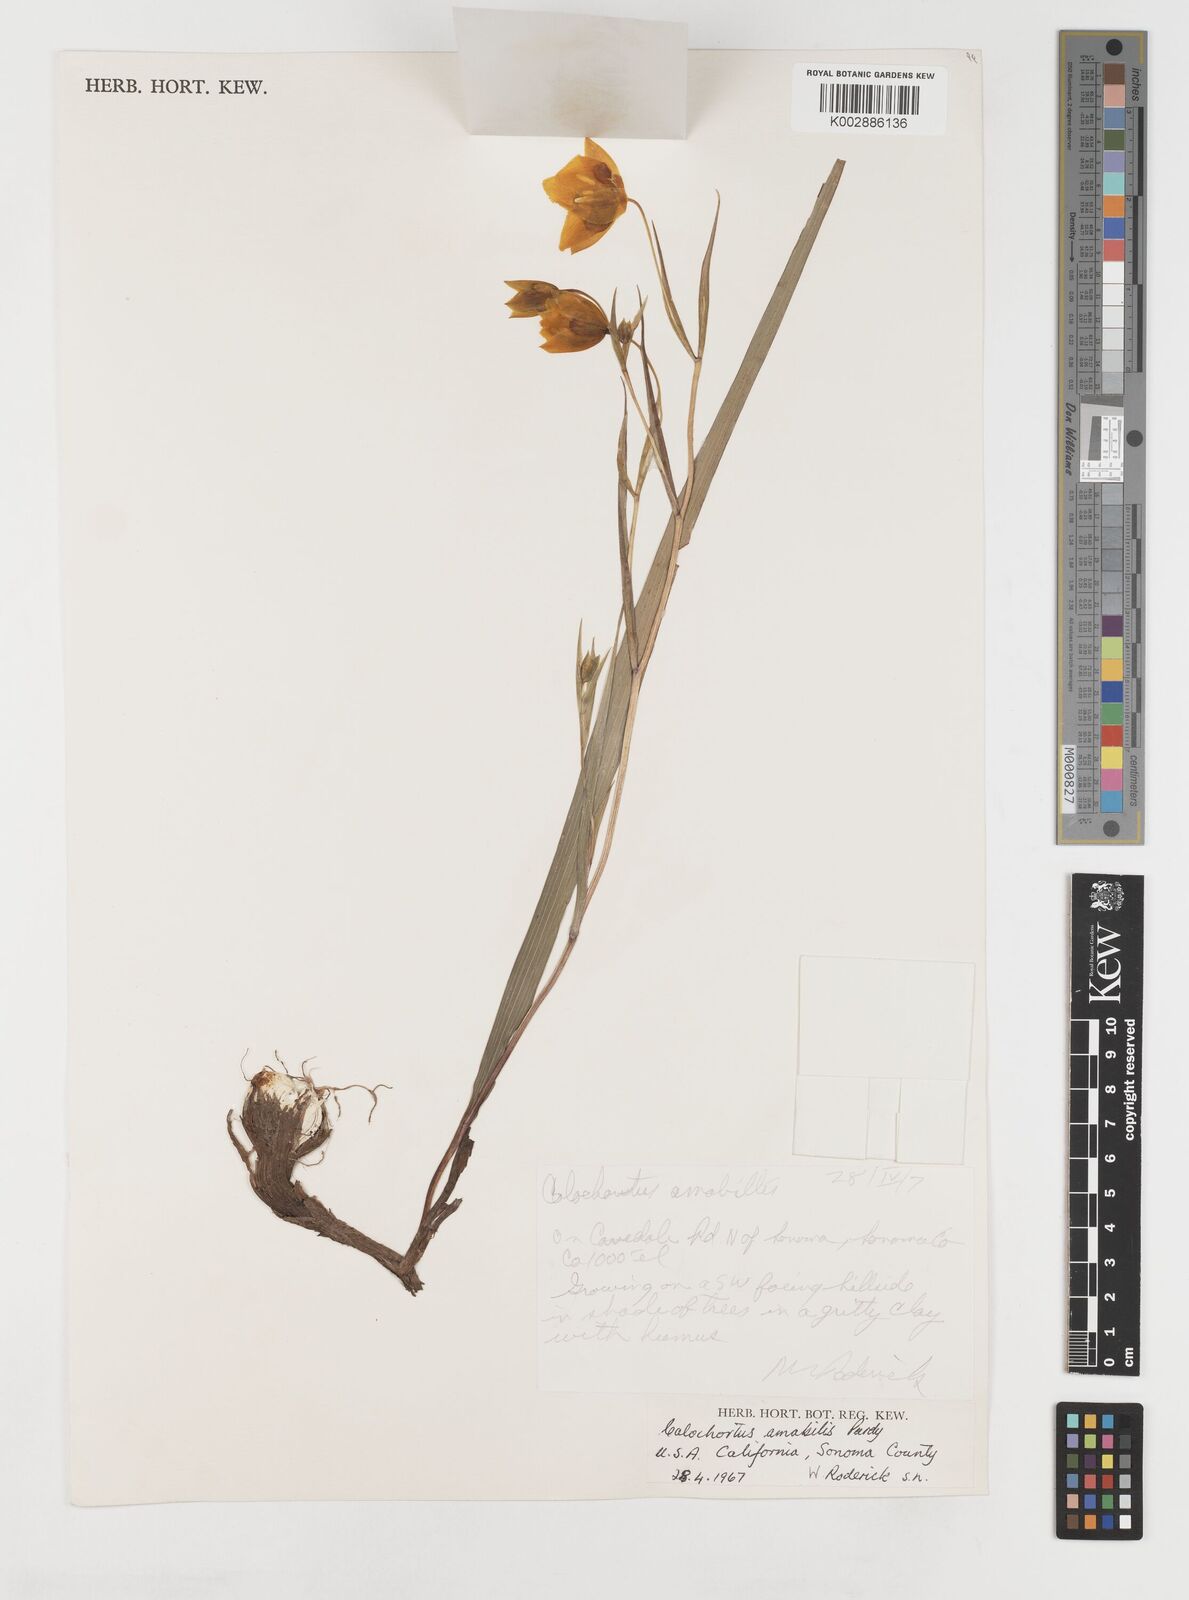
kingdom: Plantae
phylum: Tracheophyta
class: Liliopsida
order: Liliales
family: Liliaceae
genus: Calochortus
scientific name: Calochortus amabilis
